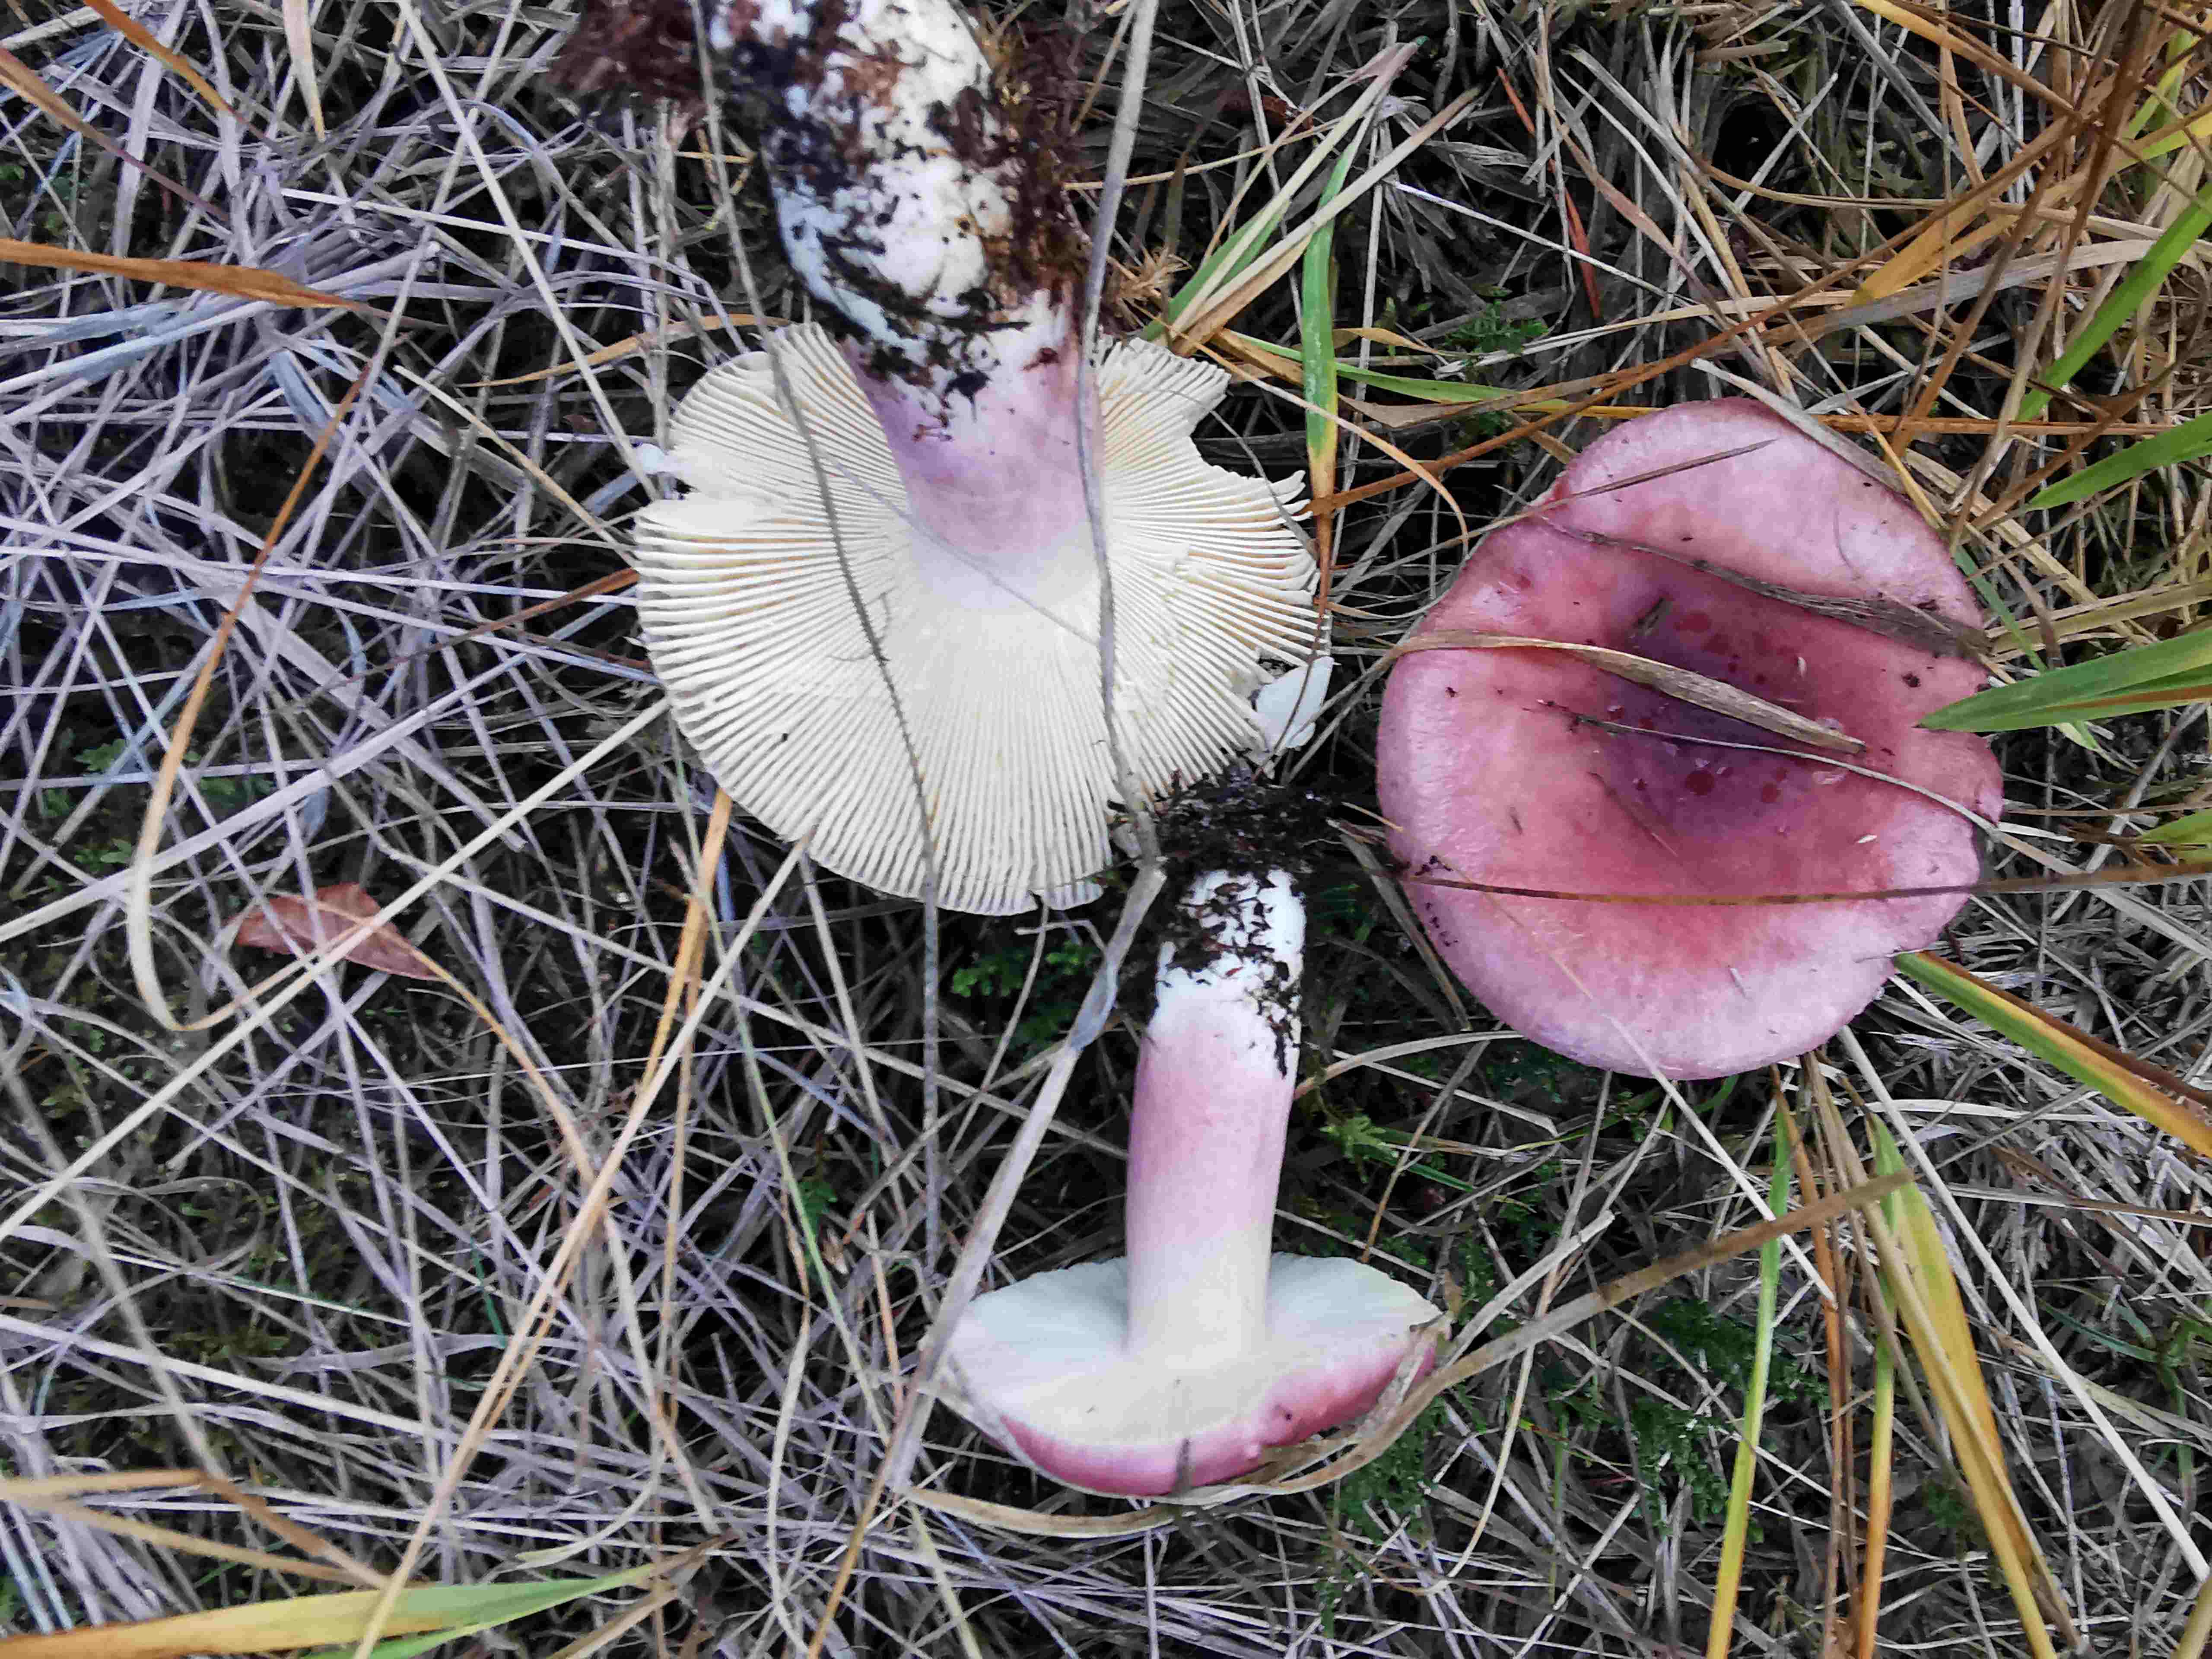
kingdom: Fungi
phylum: Basidiomycota
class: Agaricomycetes
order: Russulales
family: Russulaceae
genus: Russula
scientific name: Russula sardonia
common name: citronbladet skørhat
